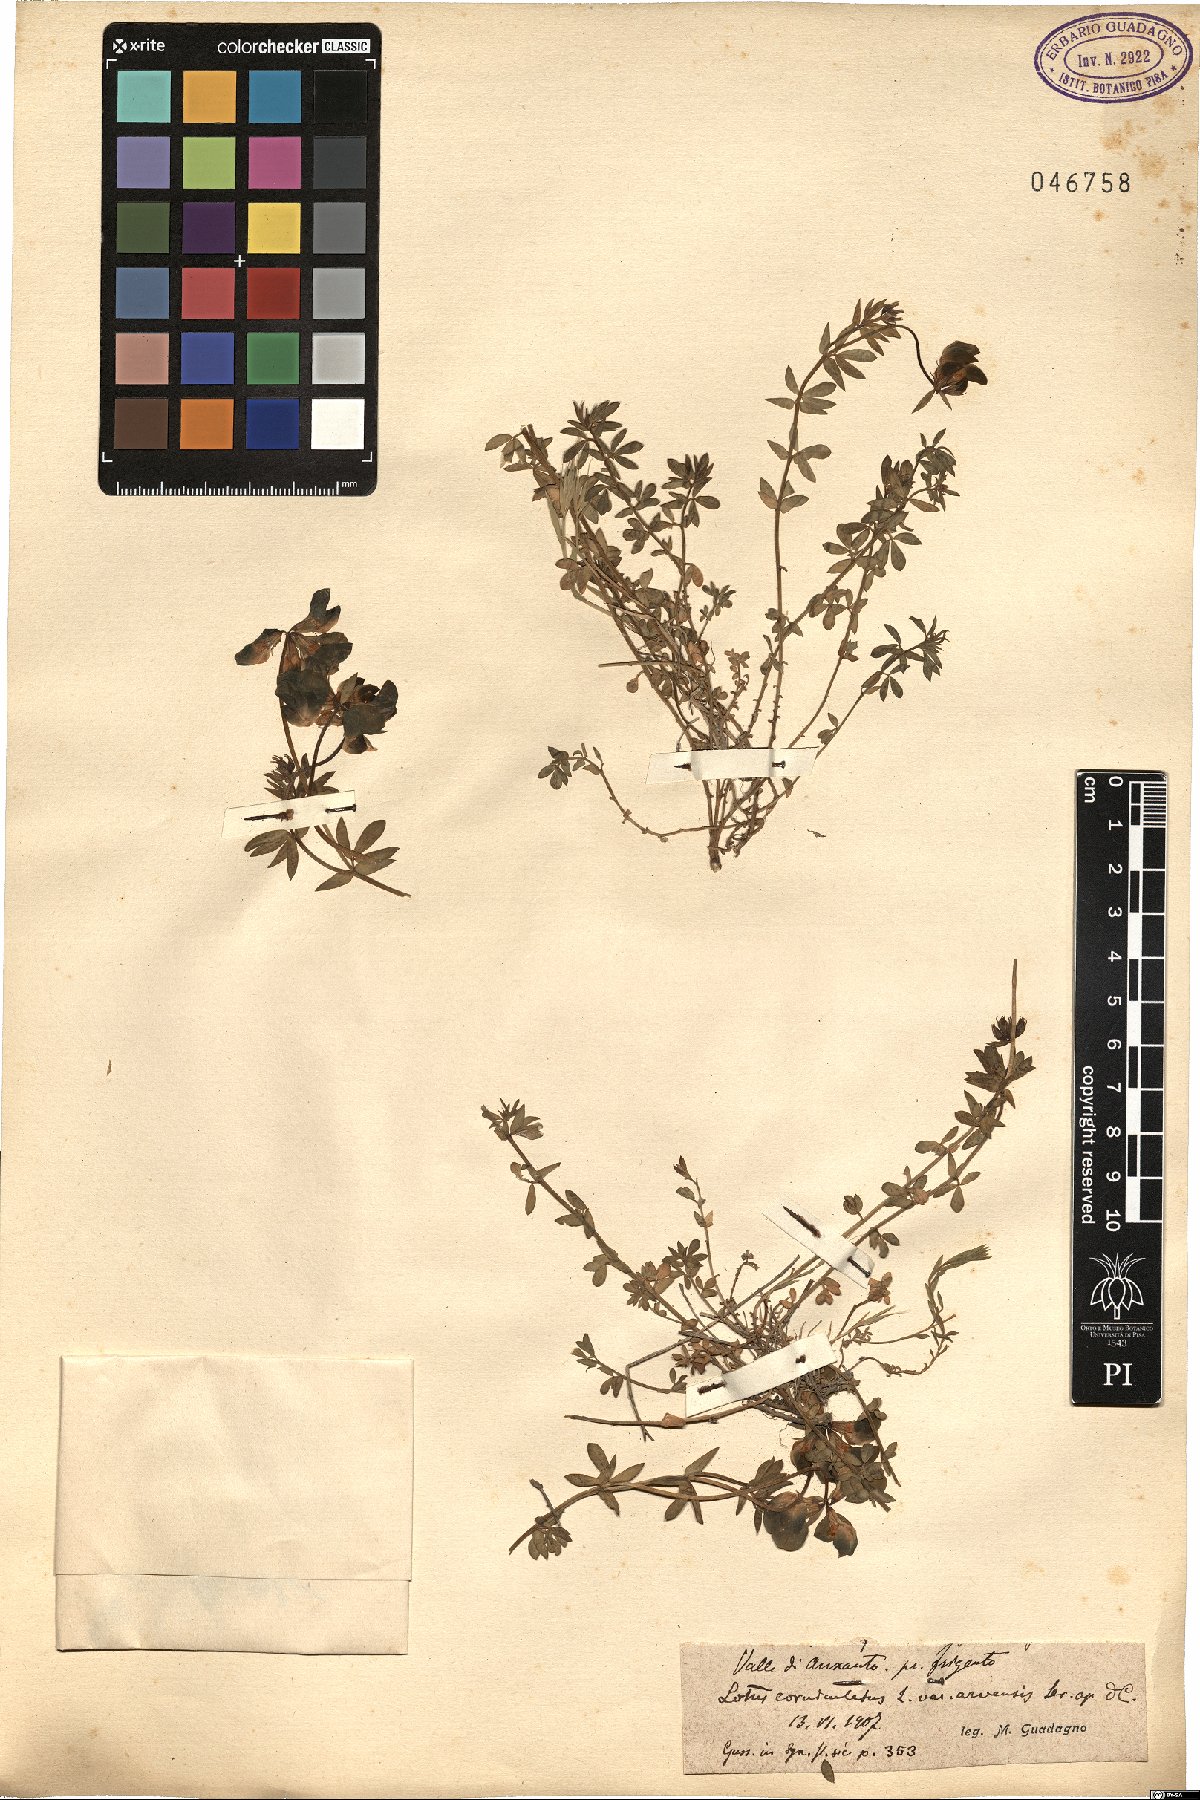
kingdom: Plantae
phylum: Tracheophyta
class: Magnoliopsida
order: Fabales
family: Fabaceae
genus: Lotus
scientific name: Lotus corniculatus
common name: Common bird's-foot-trefoil
